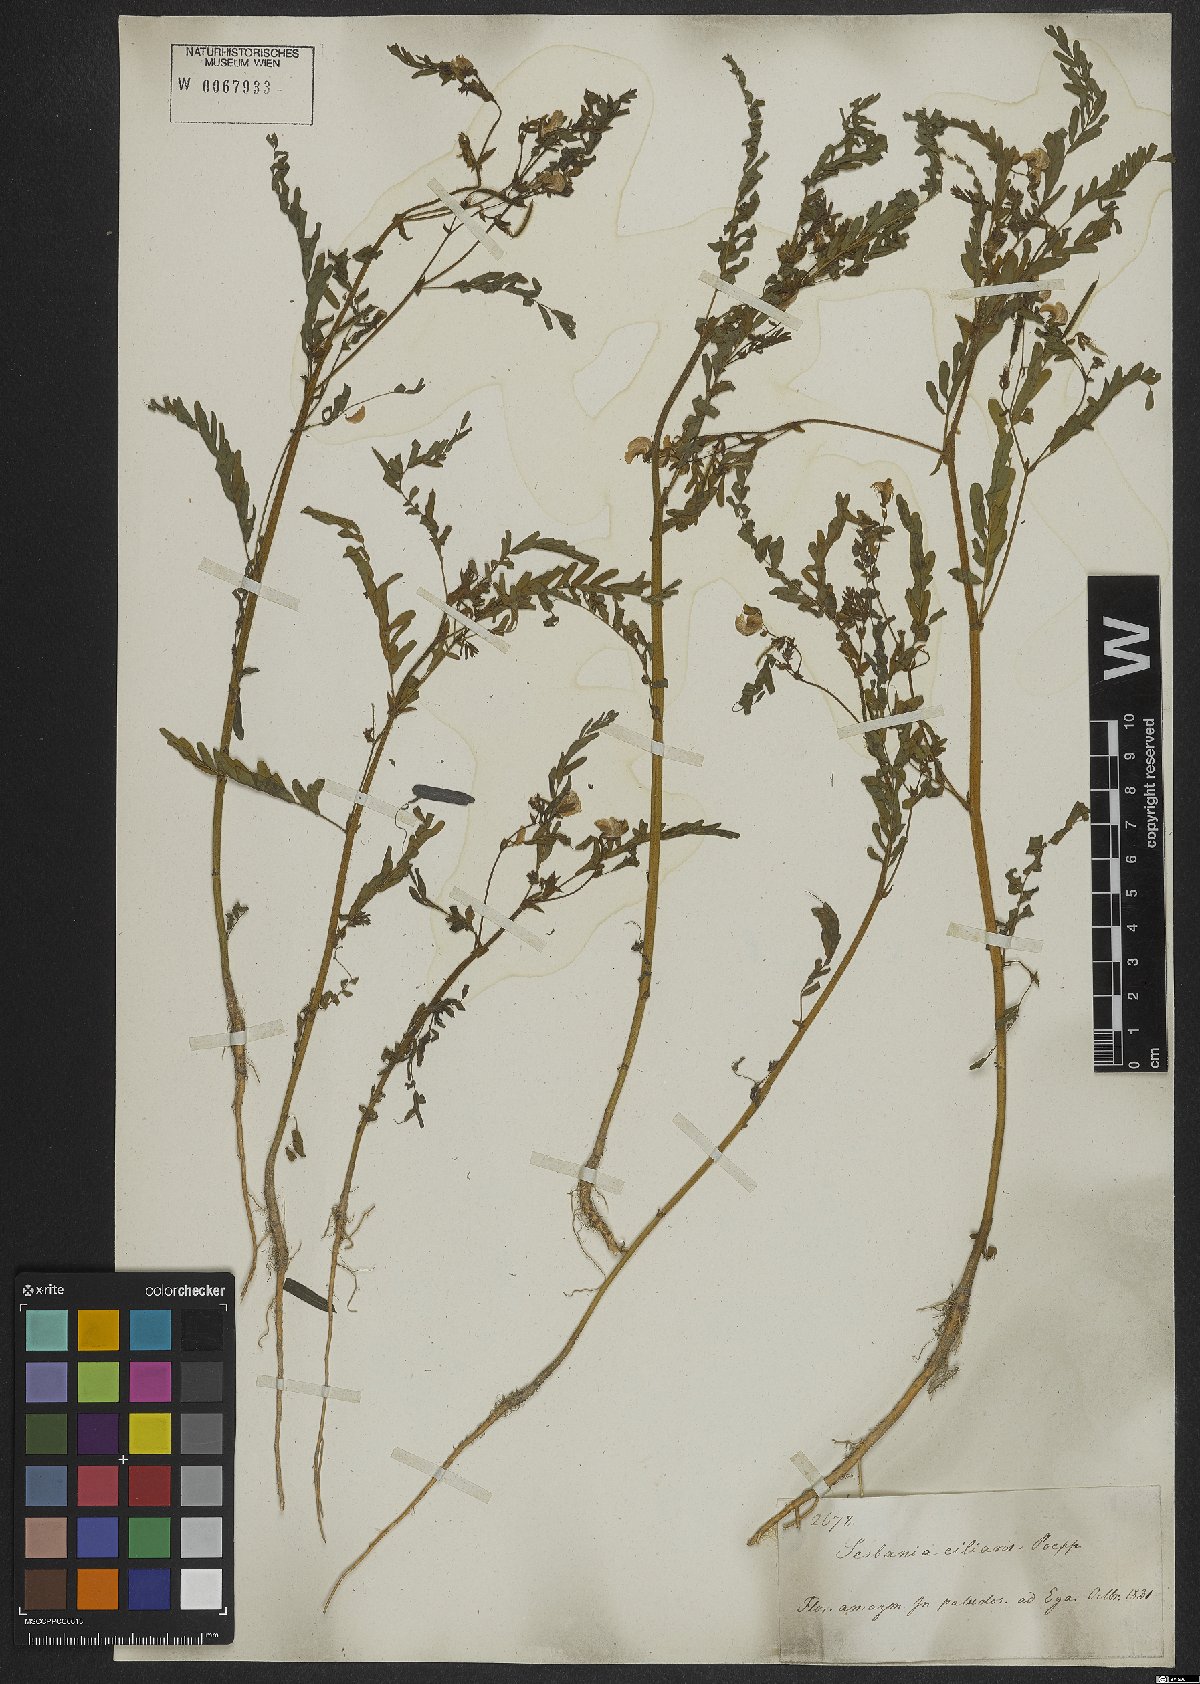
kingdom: Plantae
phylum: Tracheophyta
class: Magnoliopsida
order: Fabales
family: Fabaceae
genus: Sesbania
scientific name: Sesbania
